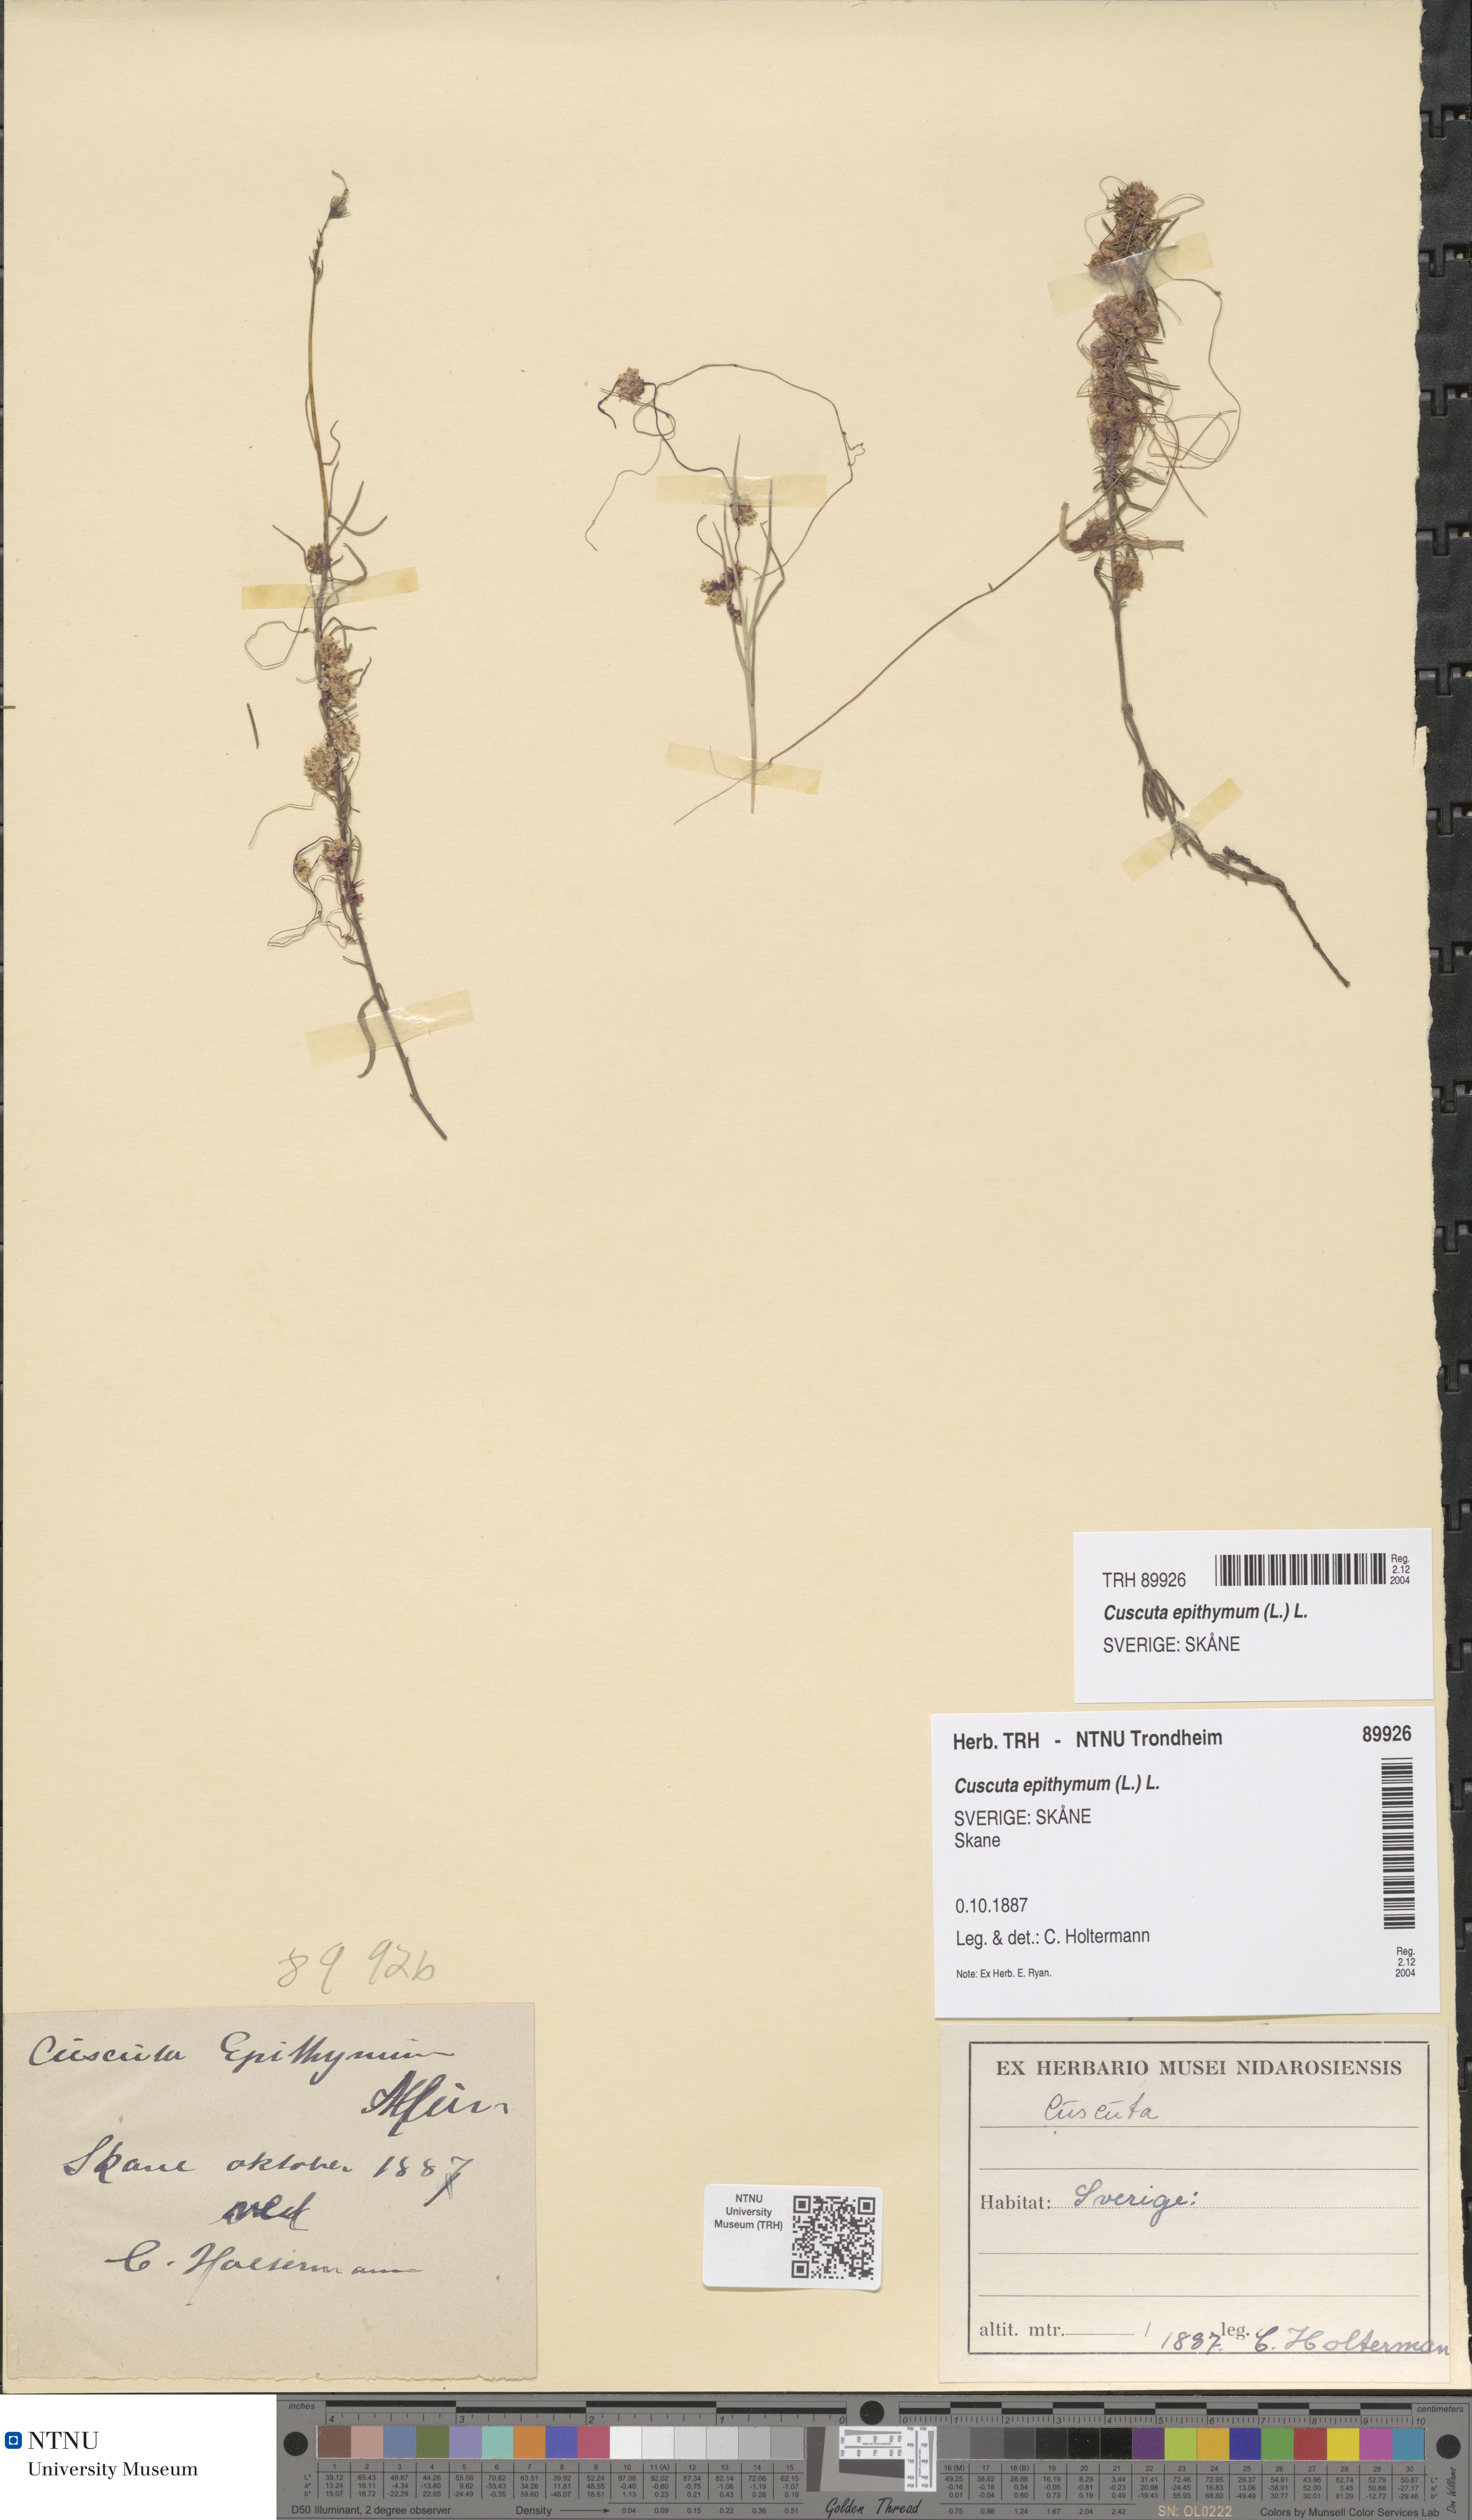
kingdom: Plantae
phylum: Tracheophyta
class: Magnoliopsida
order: Solanales
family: Convolvulaceae
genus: Cuscuta
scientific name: Cuscuta epithymum
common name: Clover dodder
